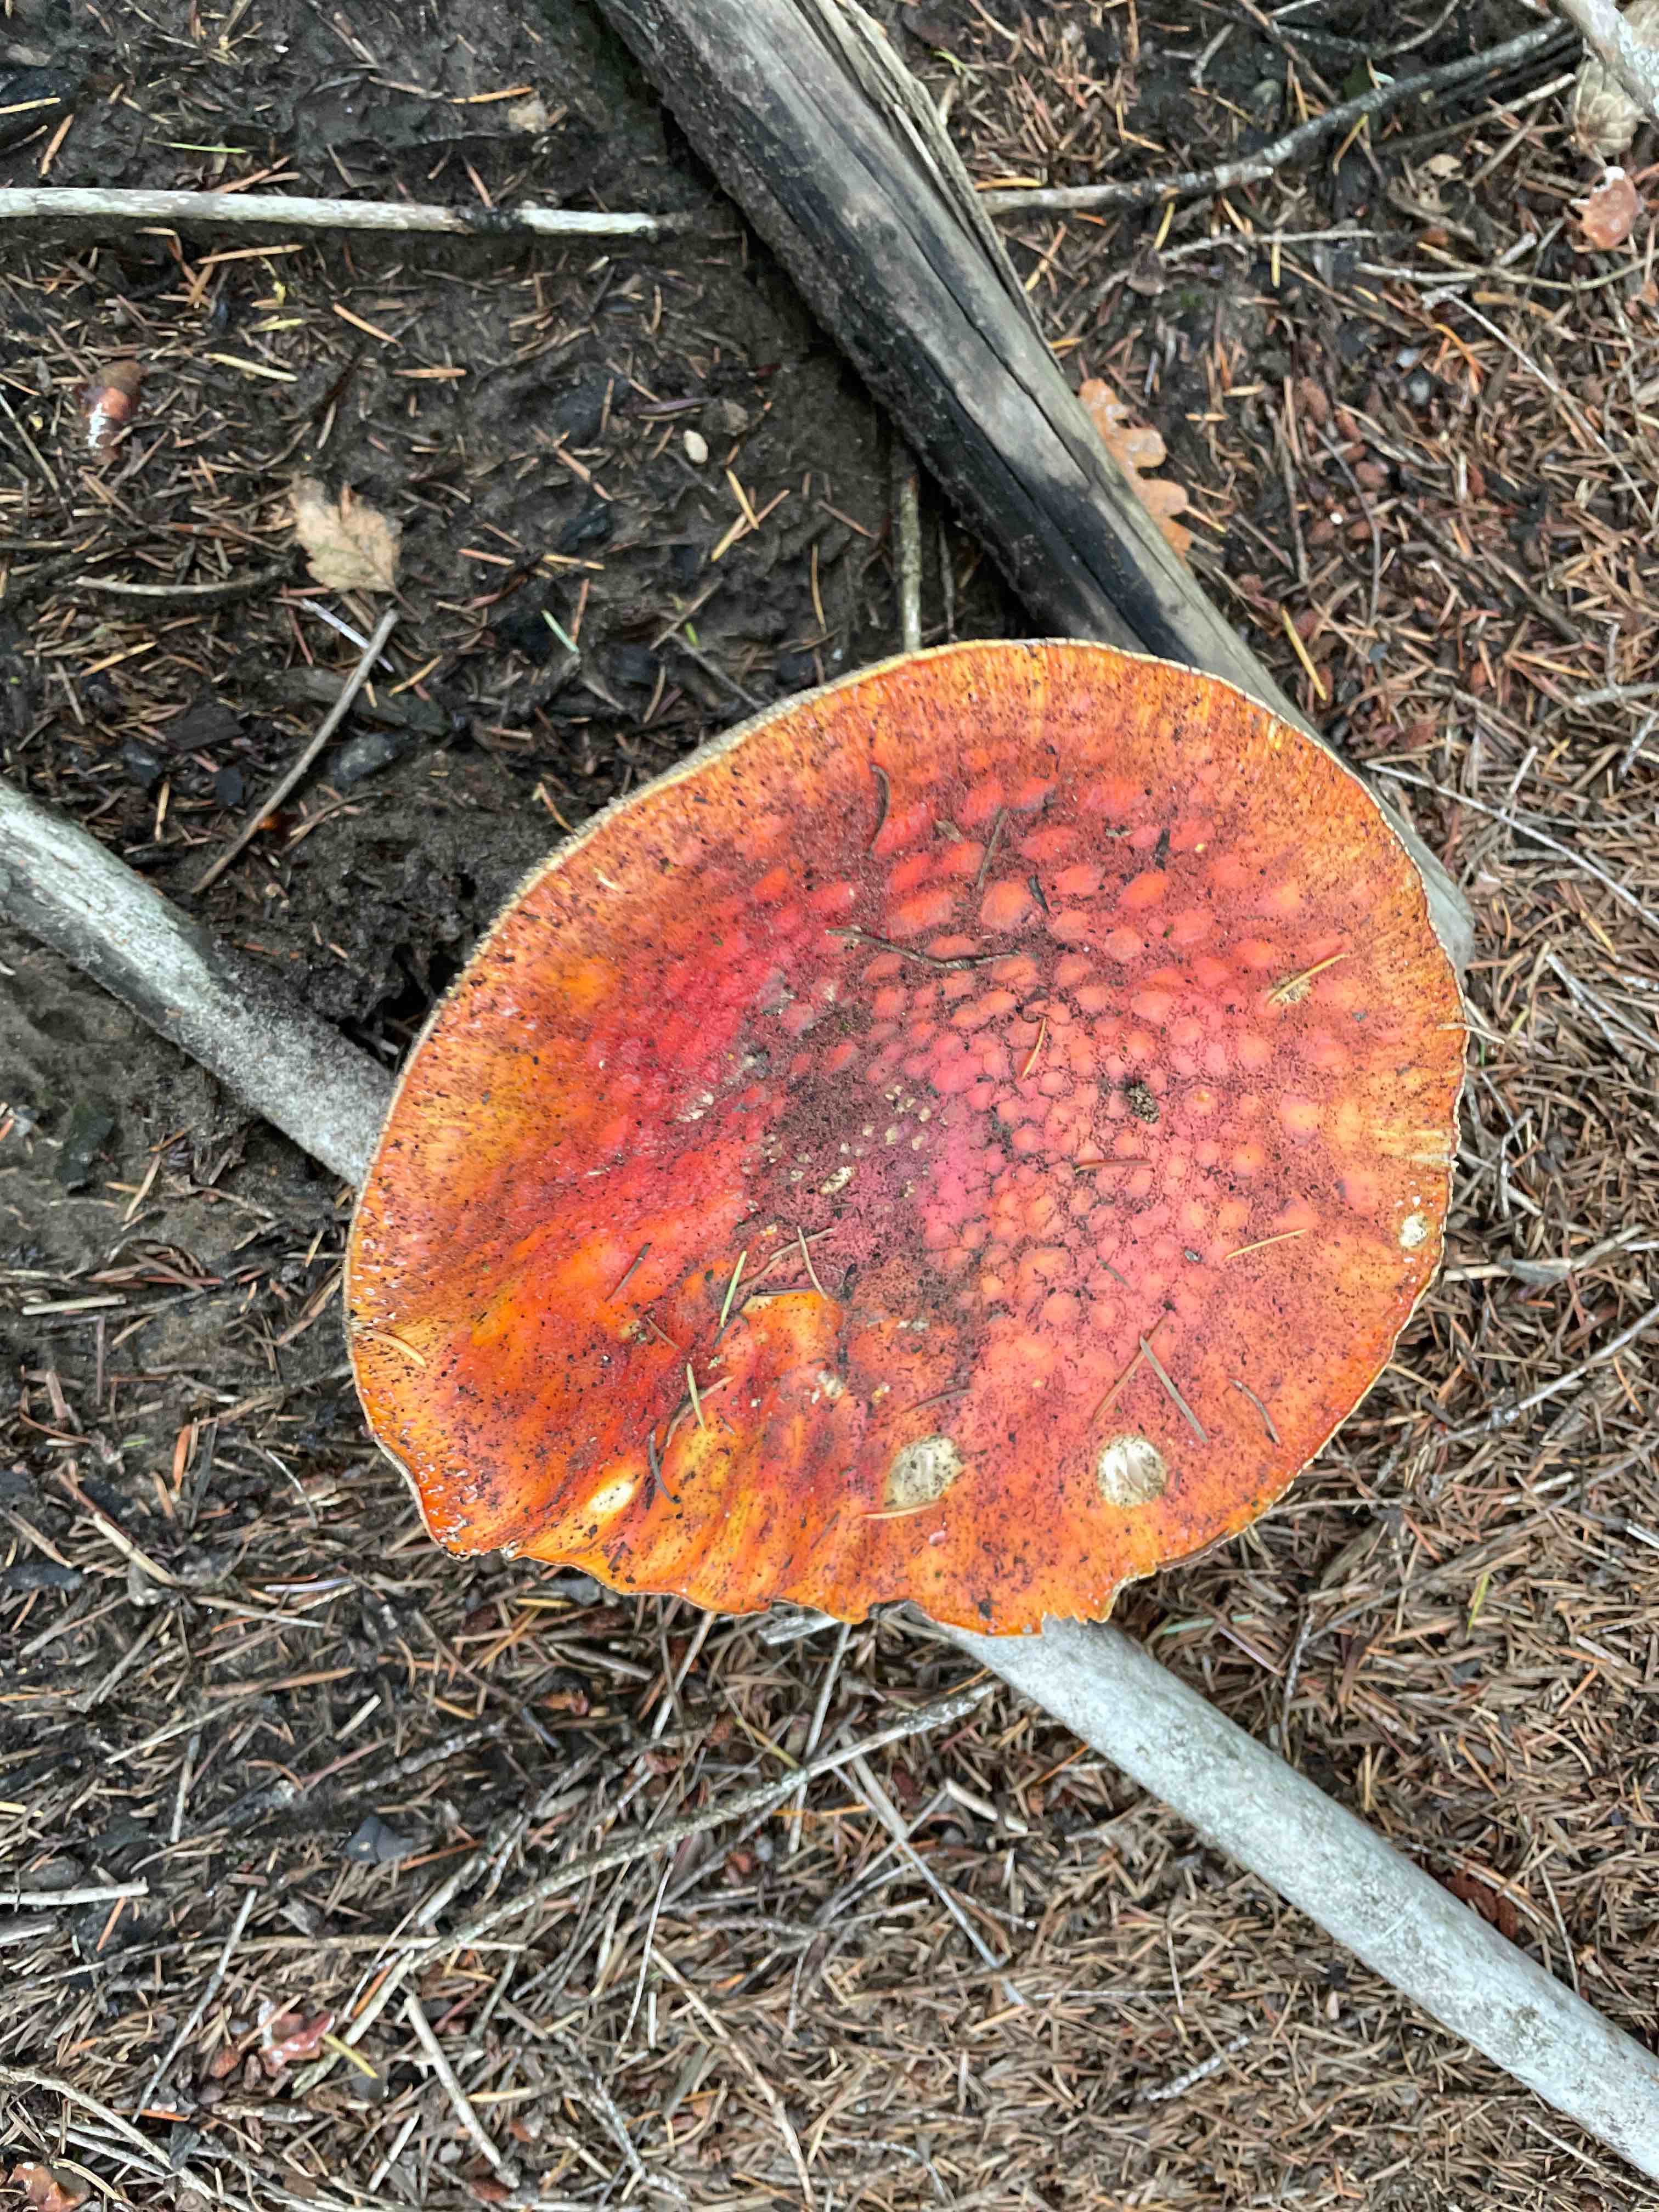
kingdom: Fungi
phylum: Basidiomycota
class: Agaricomycetes
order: Agaricales
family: Amanitaceae
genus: Amanita
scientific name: Amanita muscaria
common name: rød fluesvamp
